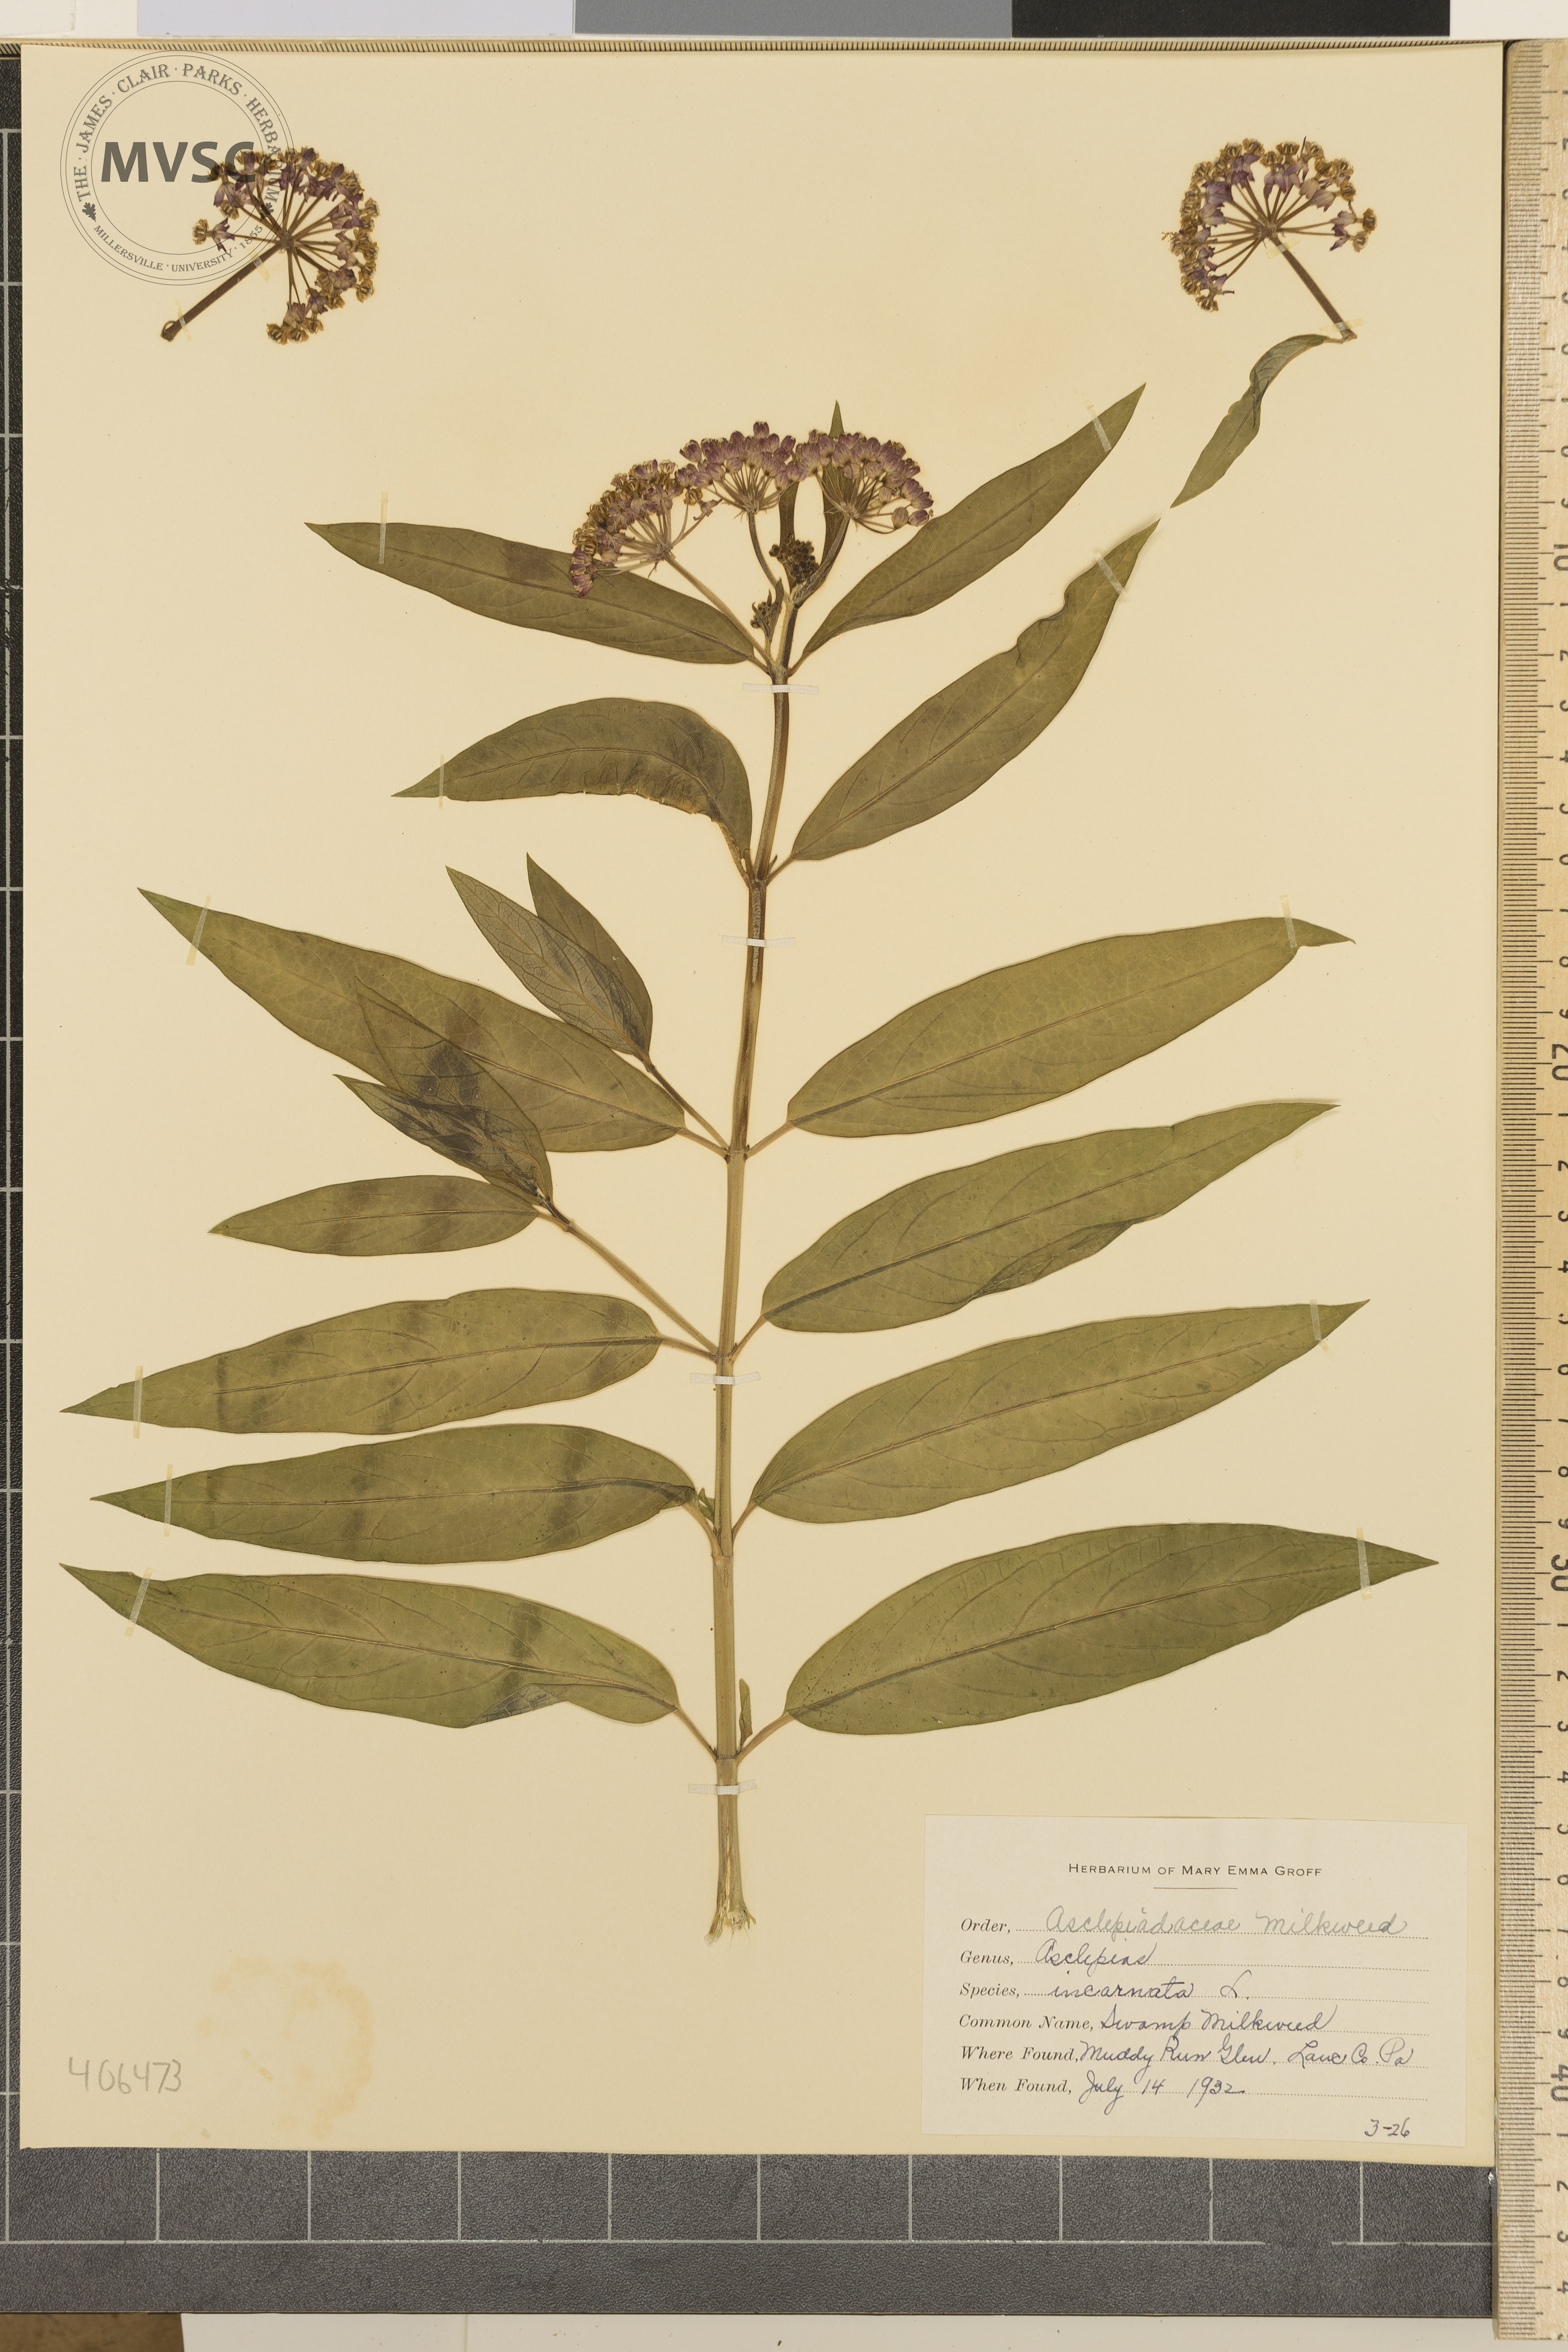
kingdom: Plantae
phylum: Tracheophyta
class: Magnoliopsida
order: Gentianales
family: Apocynaceae
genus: Asclepias
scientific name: Asclepias incarnata
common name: Swamp Milkweed
